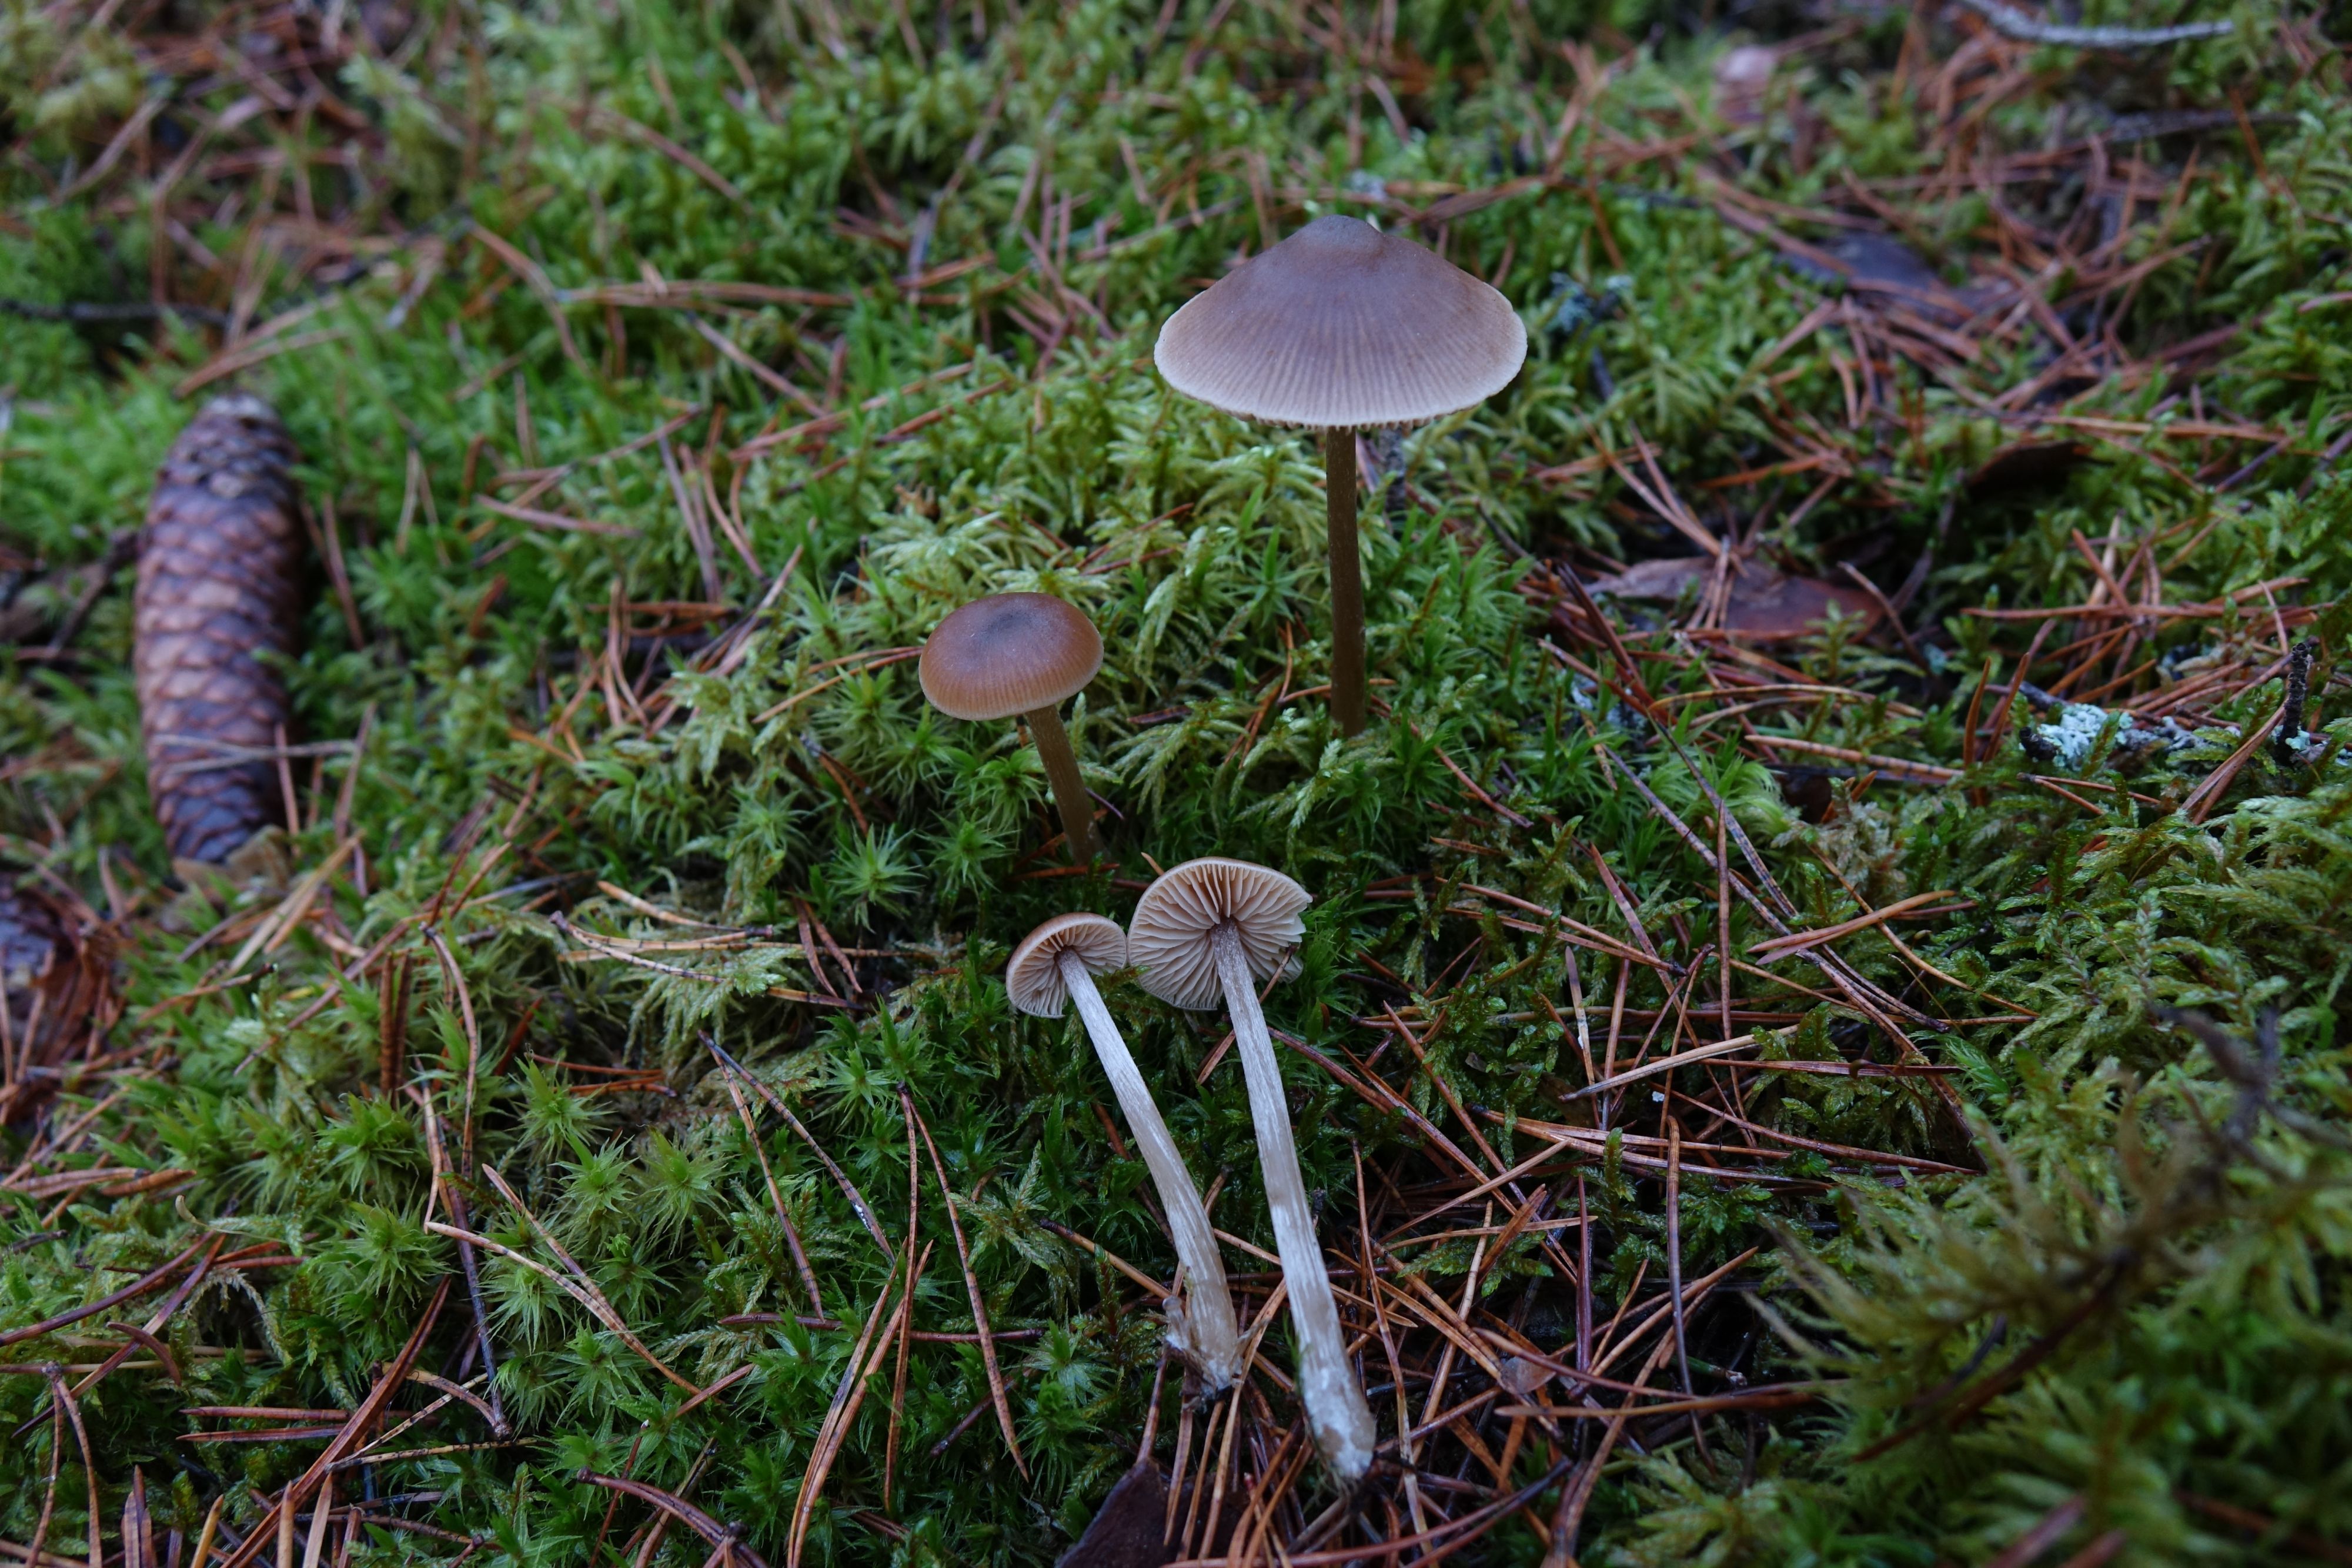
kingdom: Fungi
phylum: Basidiomycota
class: Agaricomycetes
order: Agaricales
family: Entolomataceae
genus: Entoloma
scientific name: Entoloma cetratum
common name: Honey pinkgill
